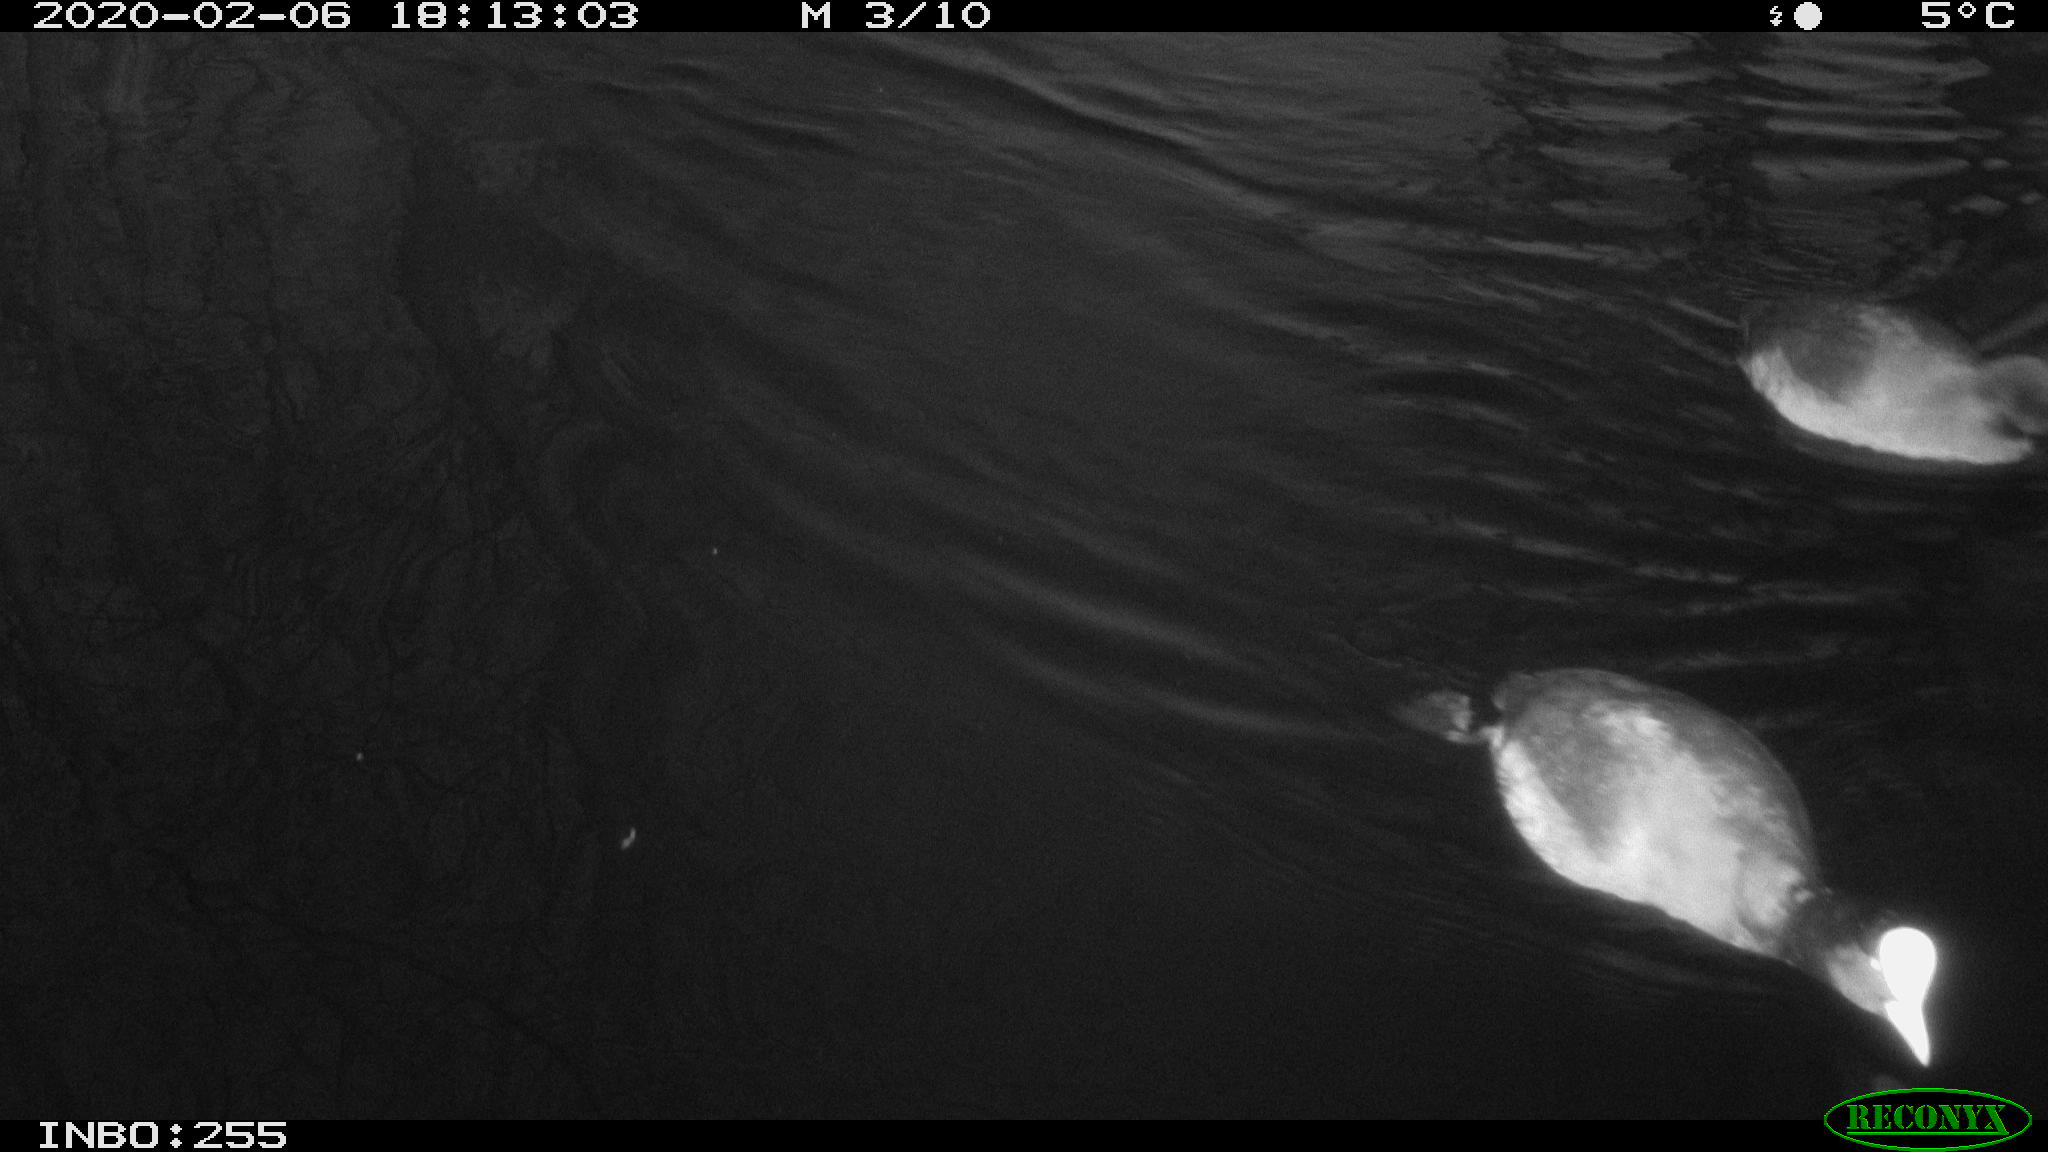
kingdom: Animalia
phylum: Chordata
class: Aves
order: Gruiformes
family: Rallidae
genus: Gallinula
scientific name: Gallinula chloropus
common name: Common moorhen
